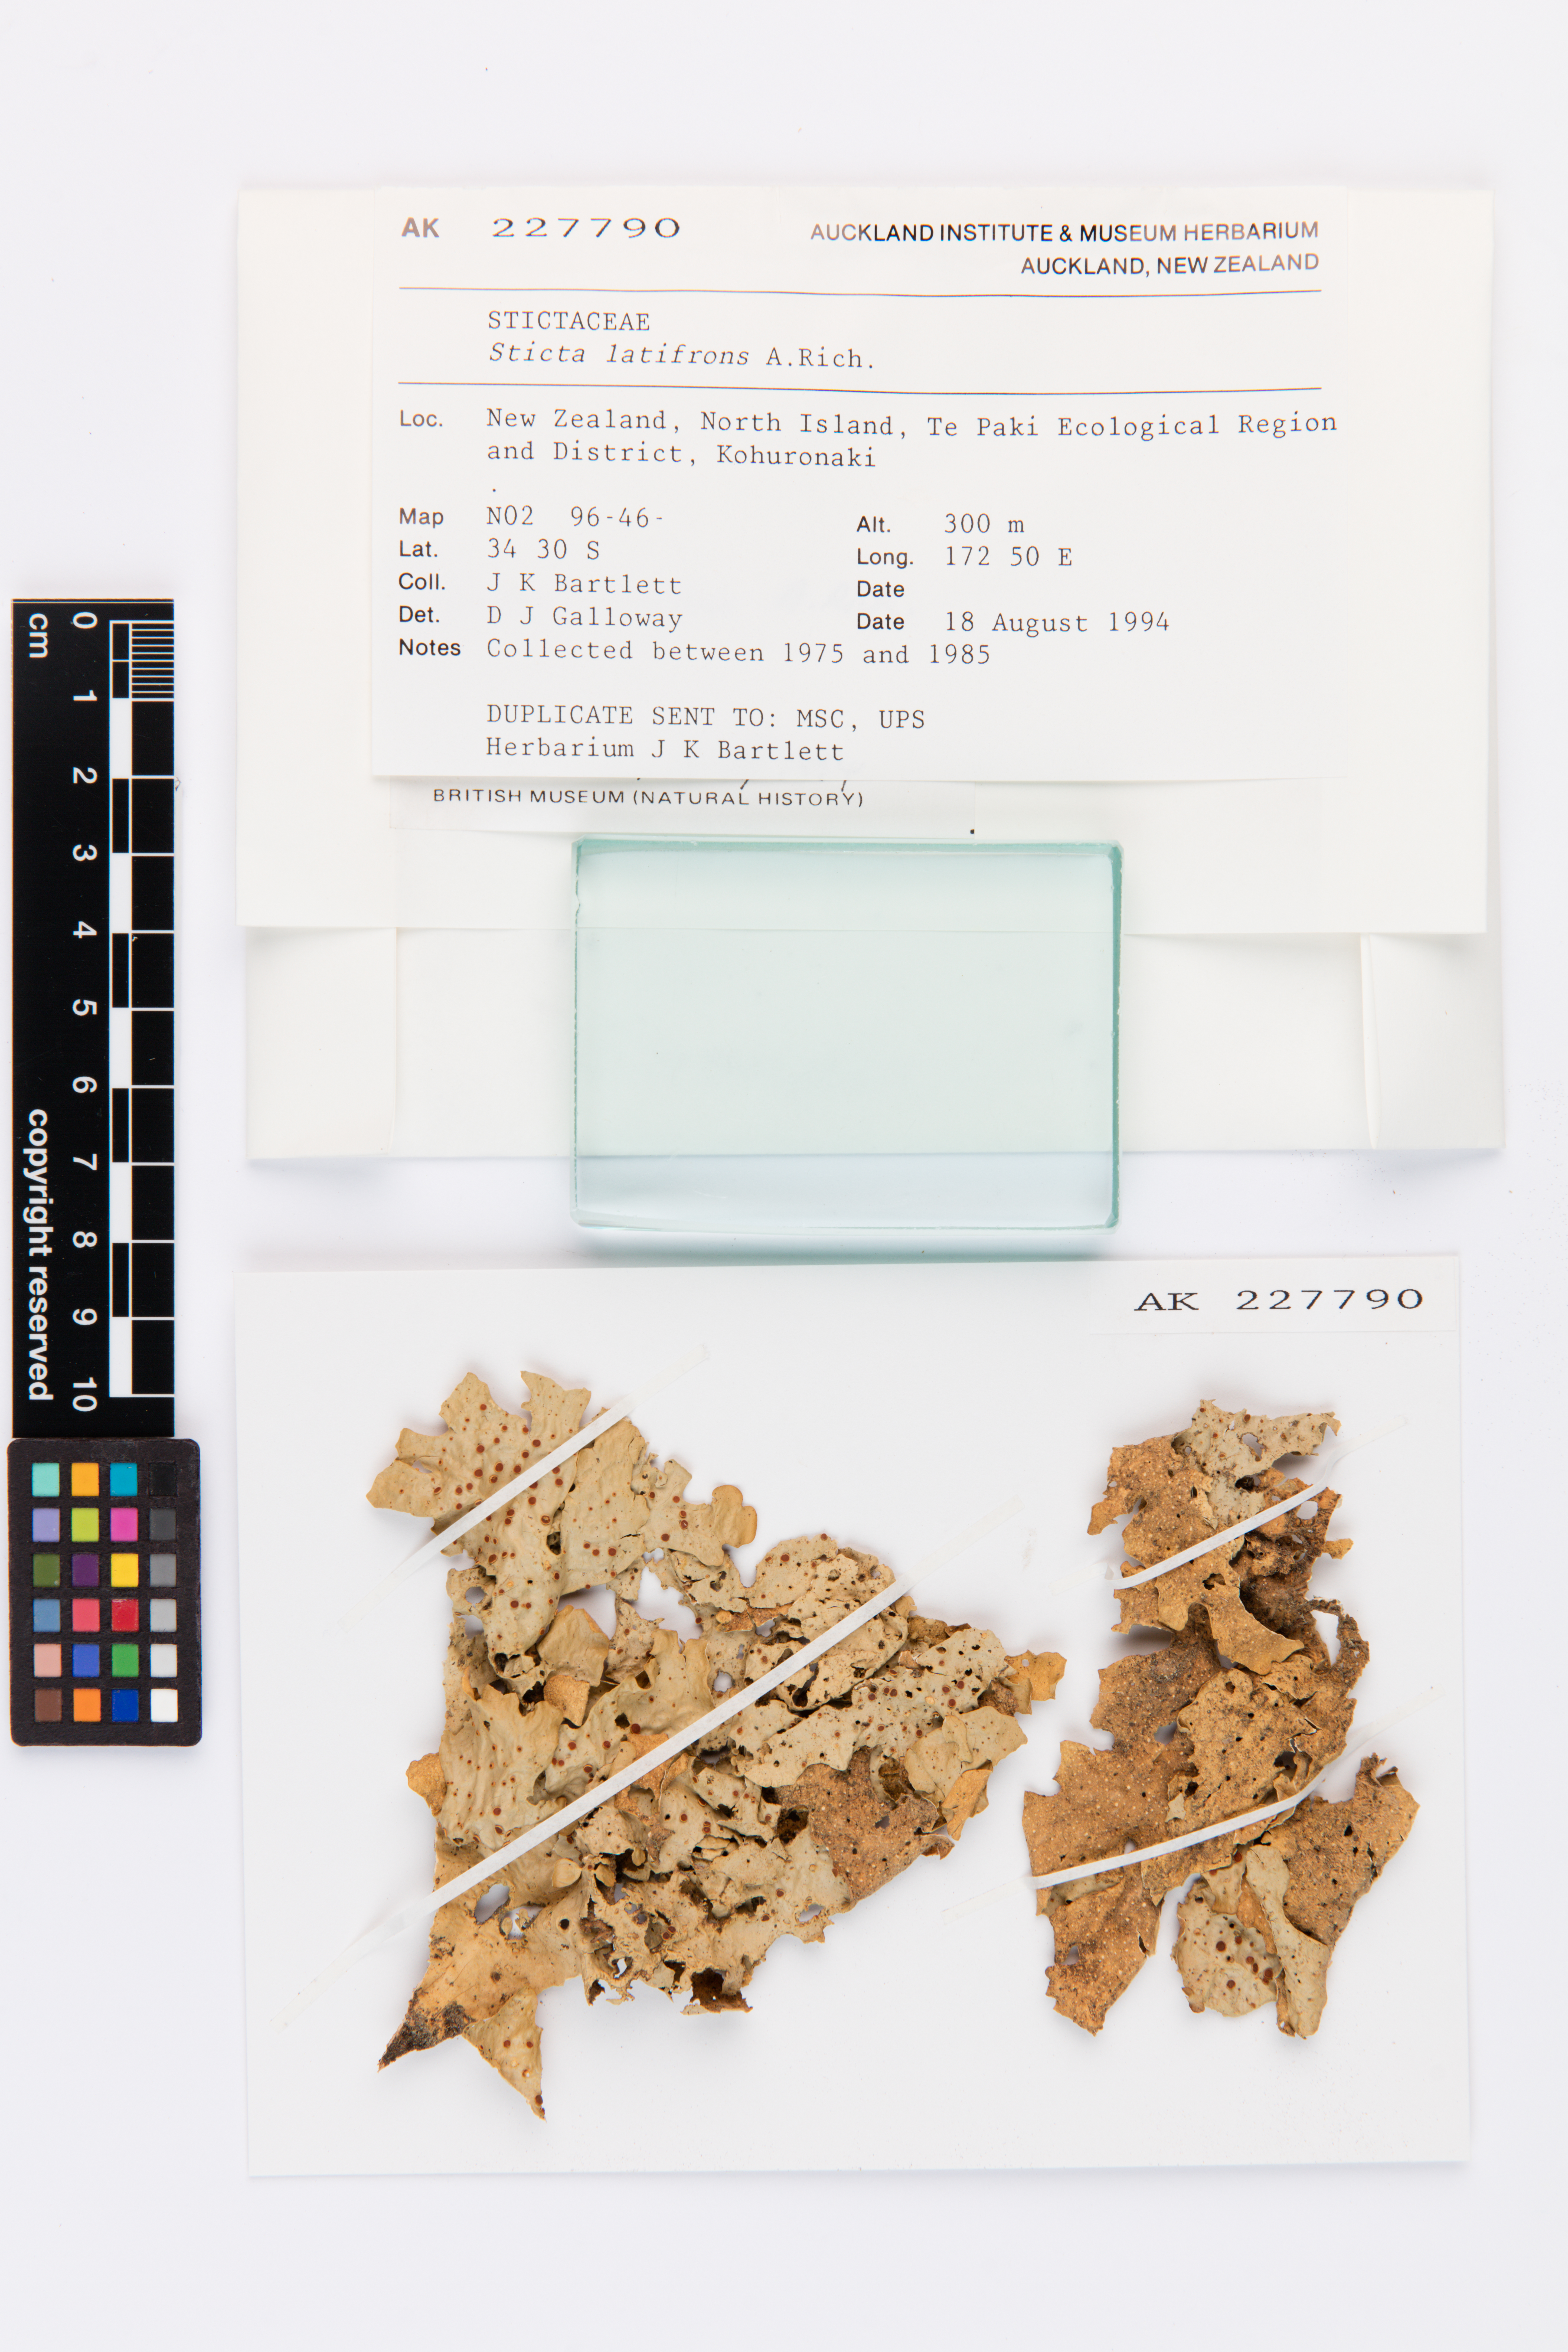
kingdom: Fungi
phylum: Ascomycota
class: Lecanoromycetes
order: Peltigerales
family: Lobariaceae
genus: Sticta
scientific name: Sticta latifrons
